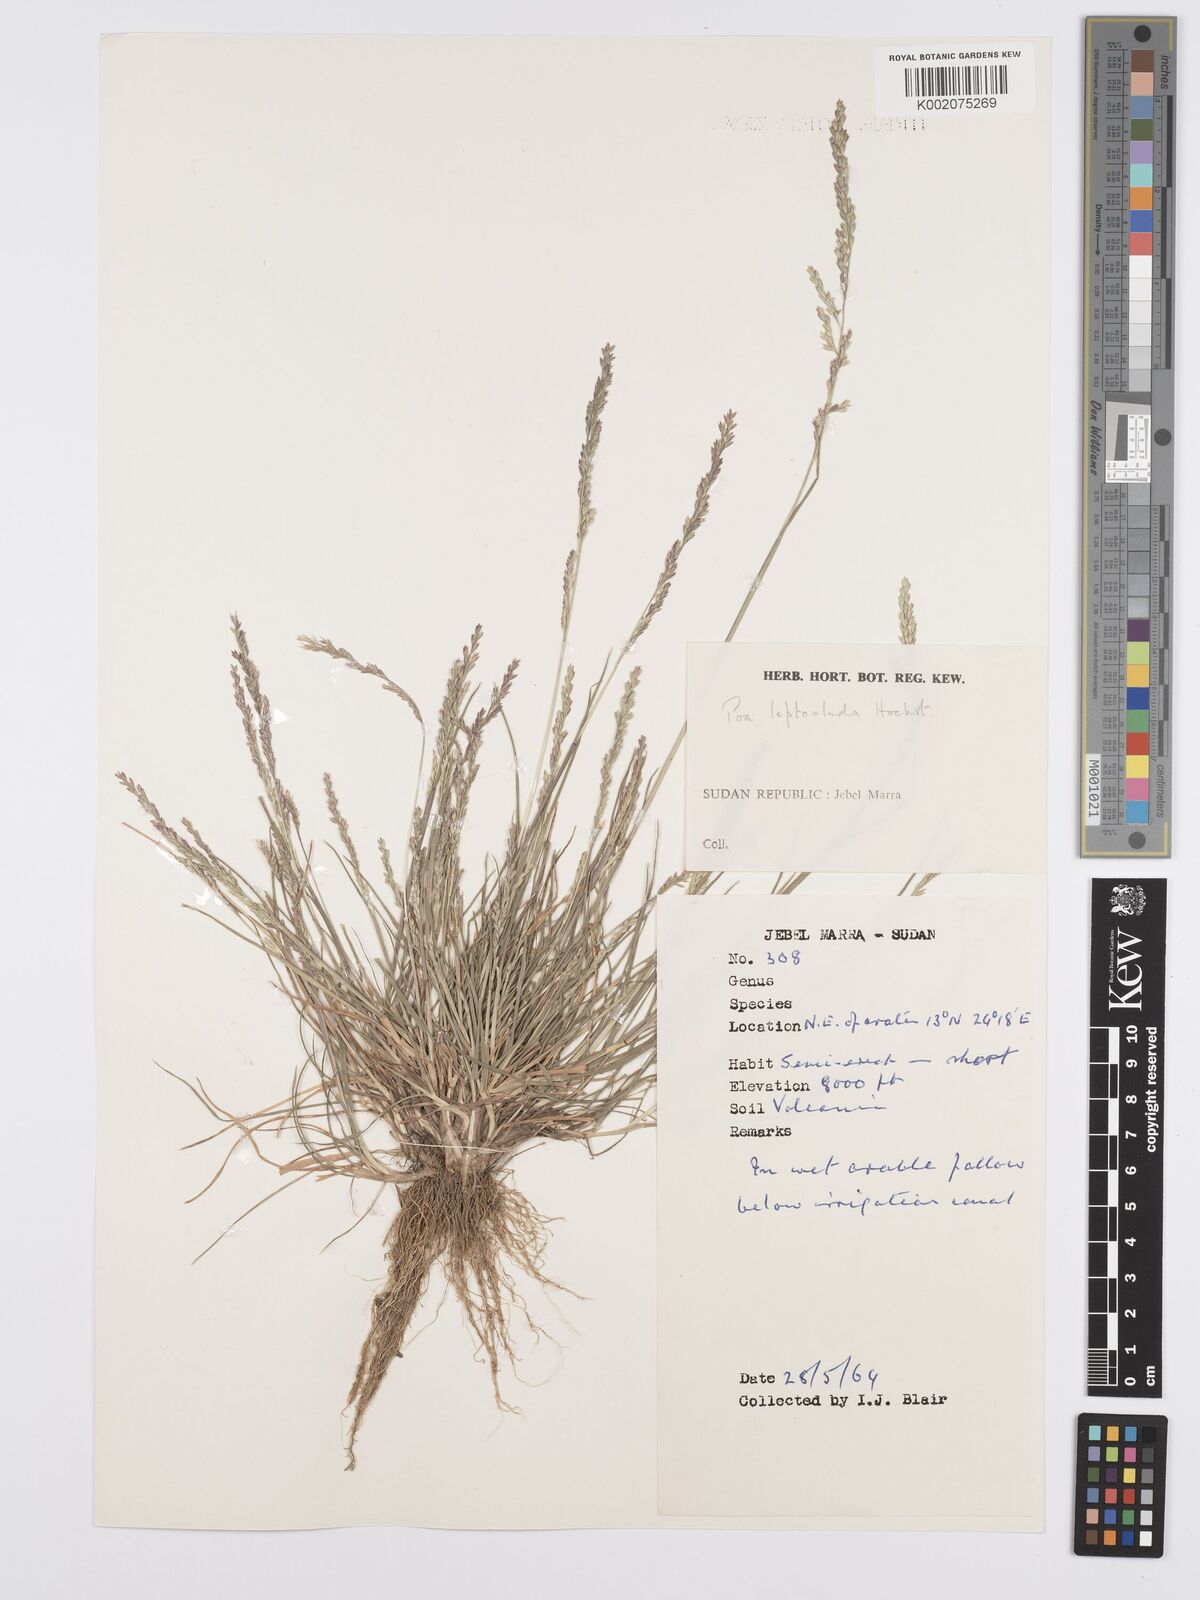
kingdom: Plantae
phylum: Tracheophyta
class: Liliopsida
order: Poales
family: Poaceae
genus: Poa
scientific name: Poa leptoclada
